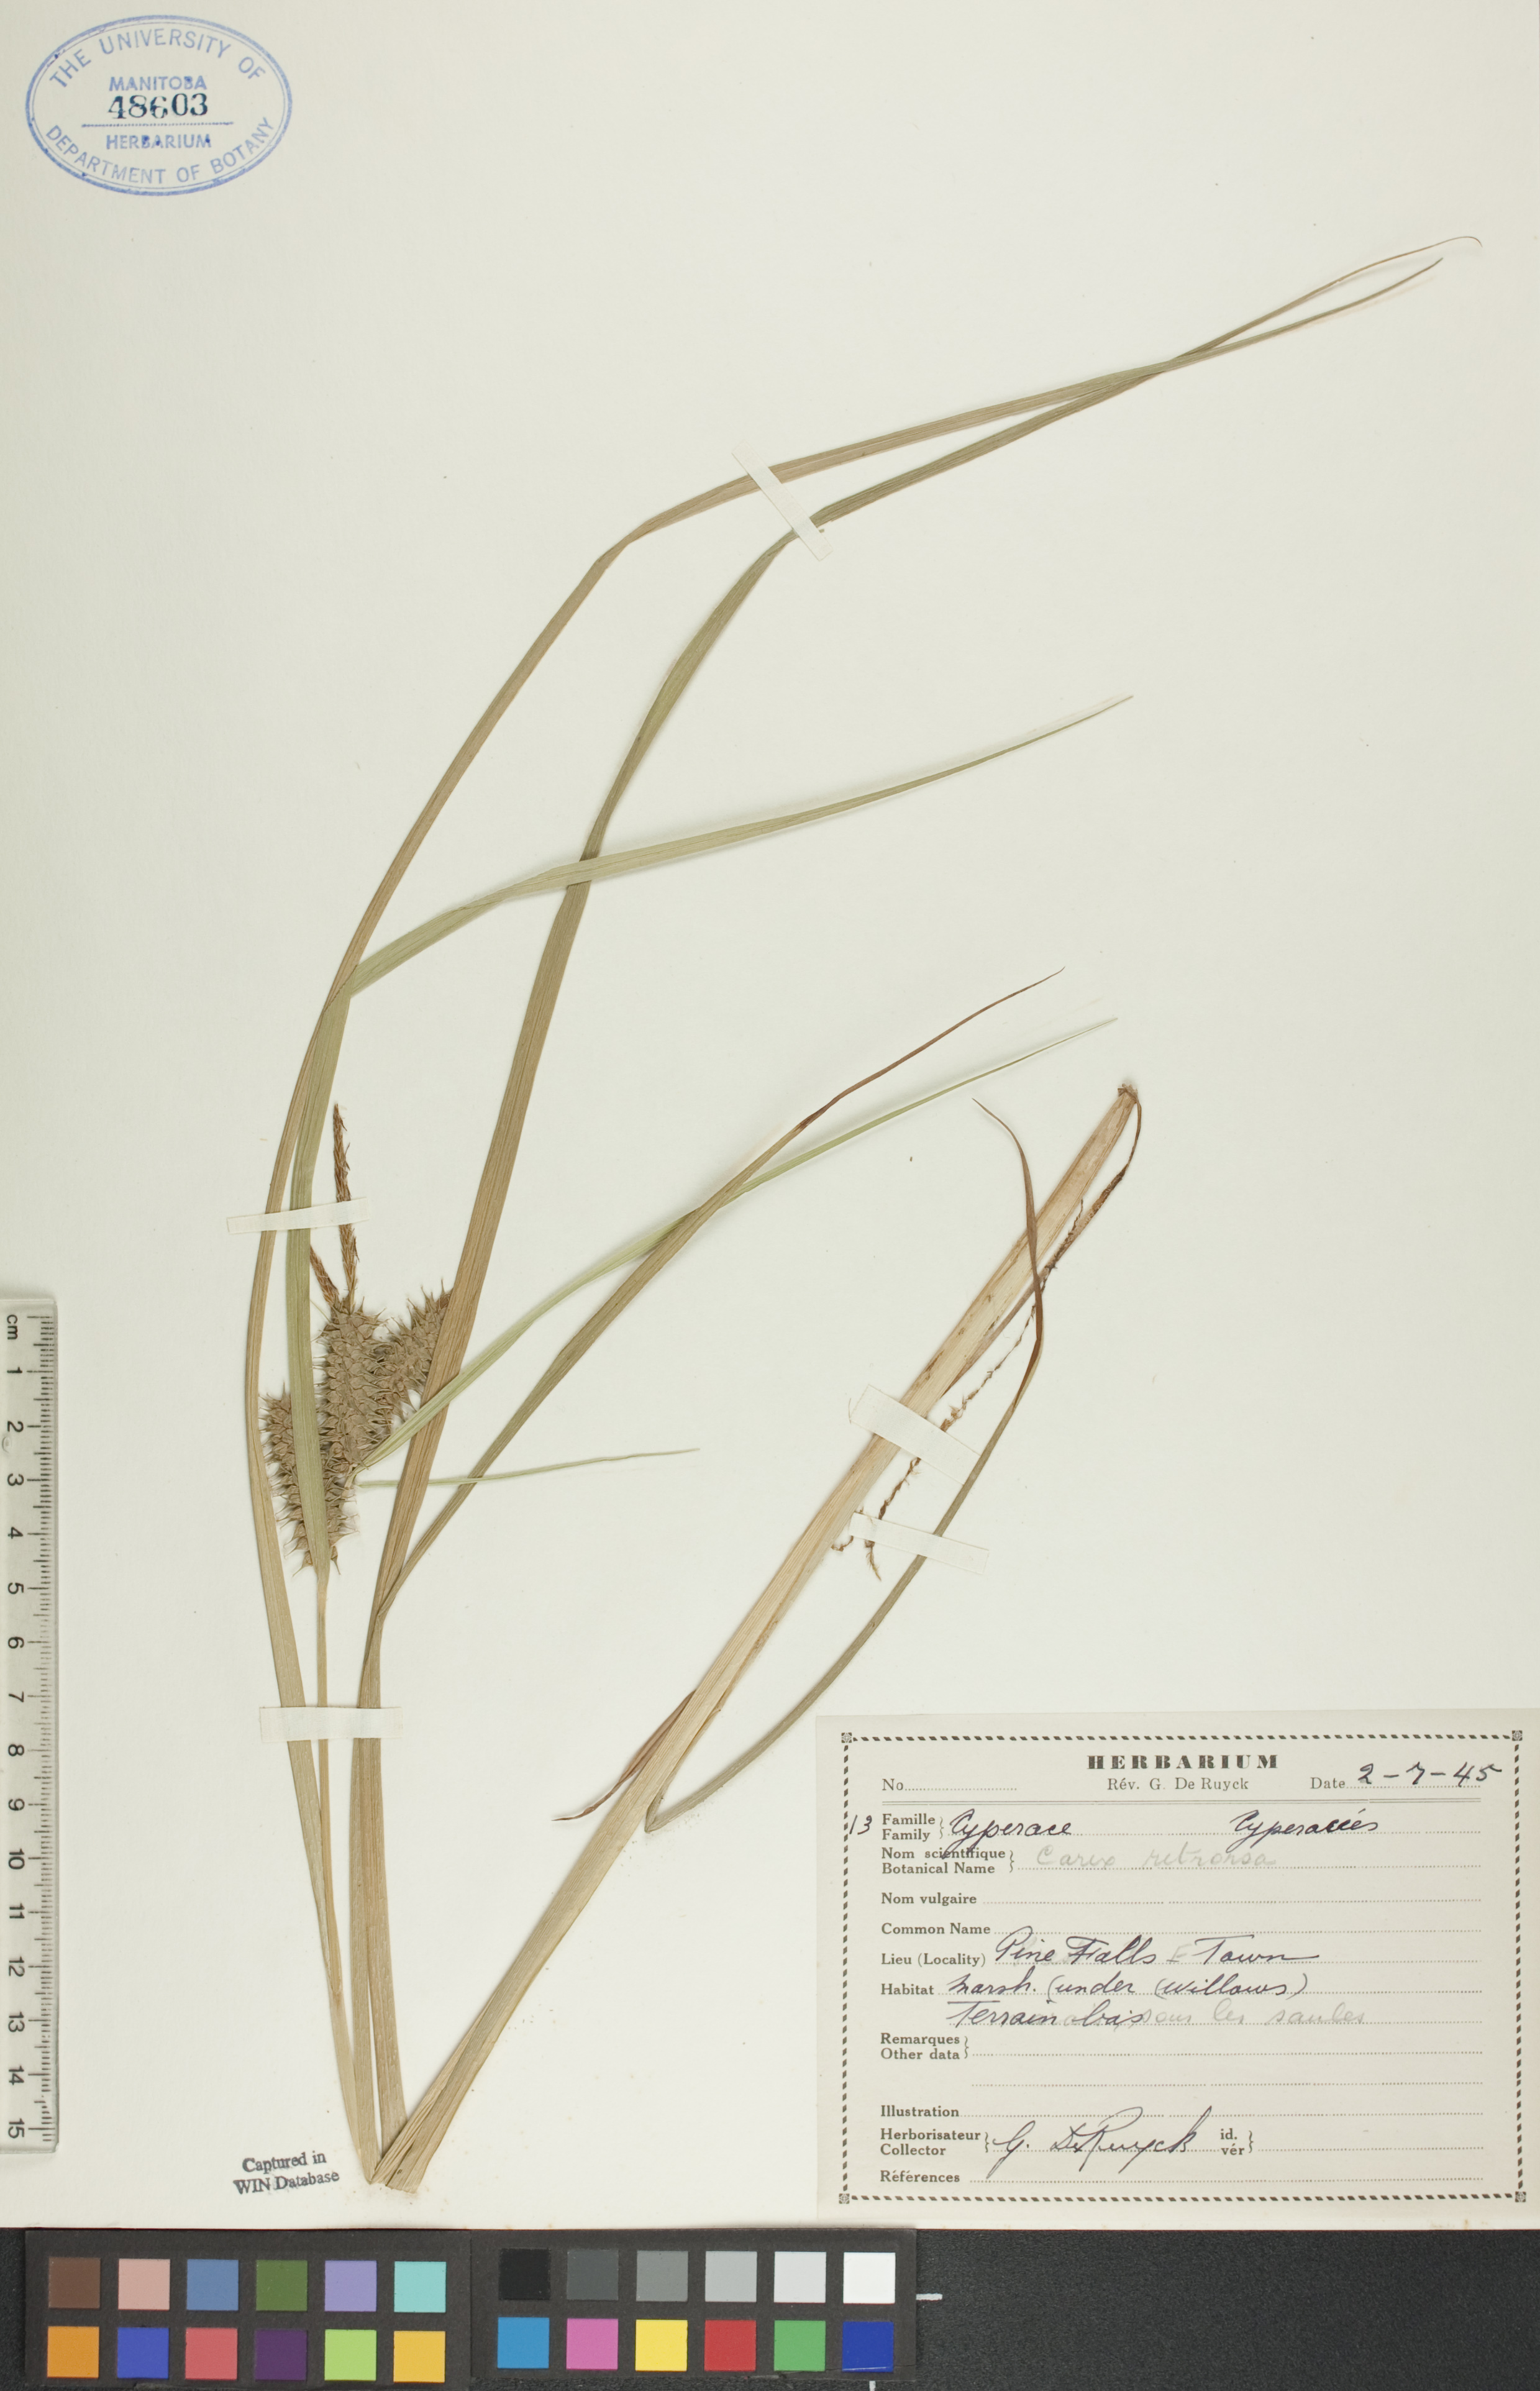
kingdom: Plantae
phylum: Tracheophyta
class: Liliopsida
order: Poales
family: Cyperaceae
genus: Carex
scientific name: Carex retrorsa
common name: Knot-sheath sedge
